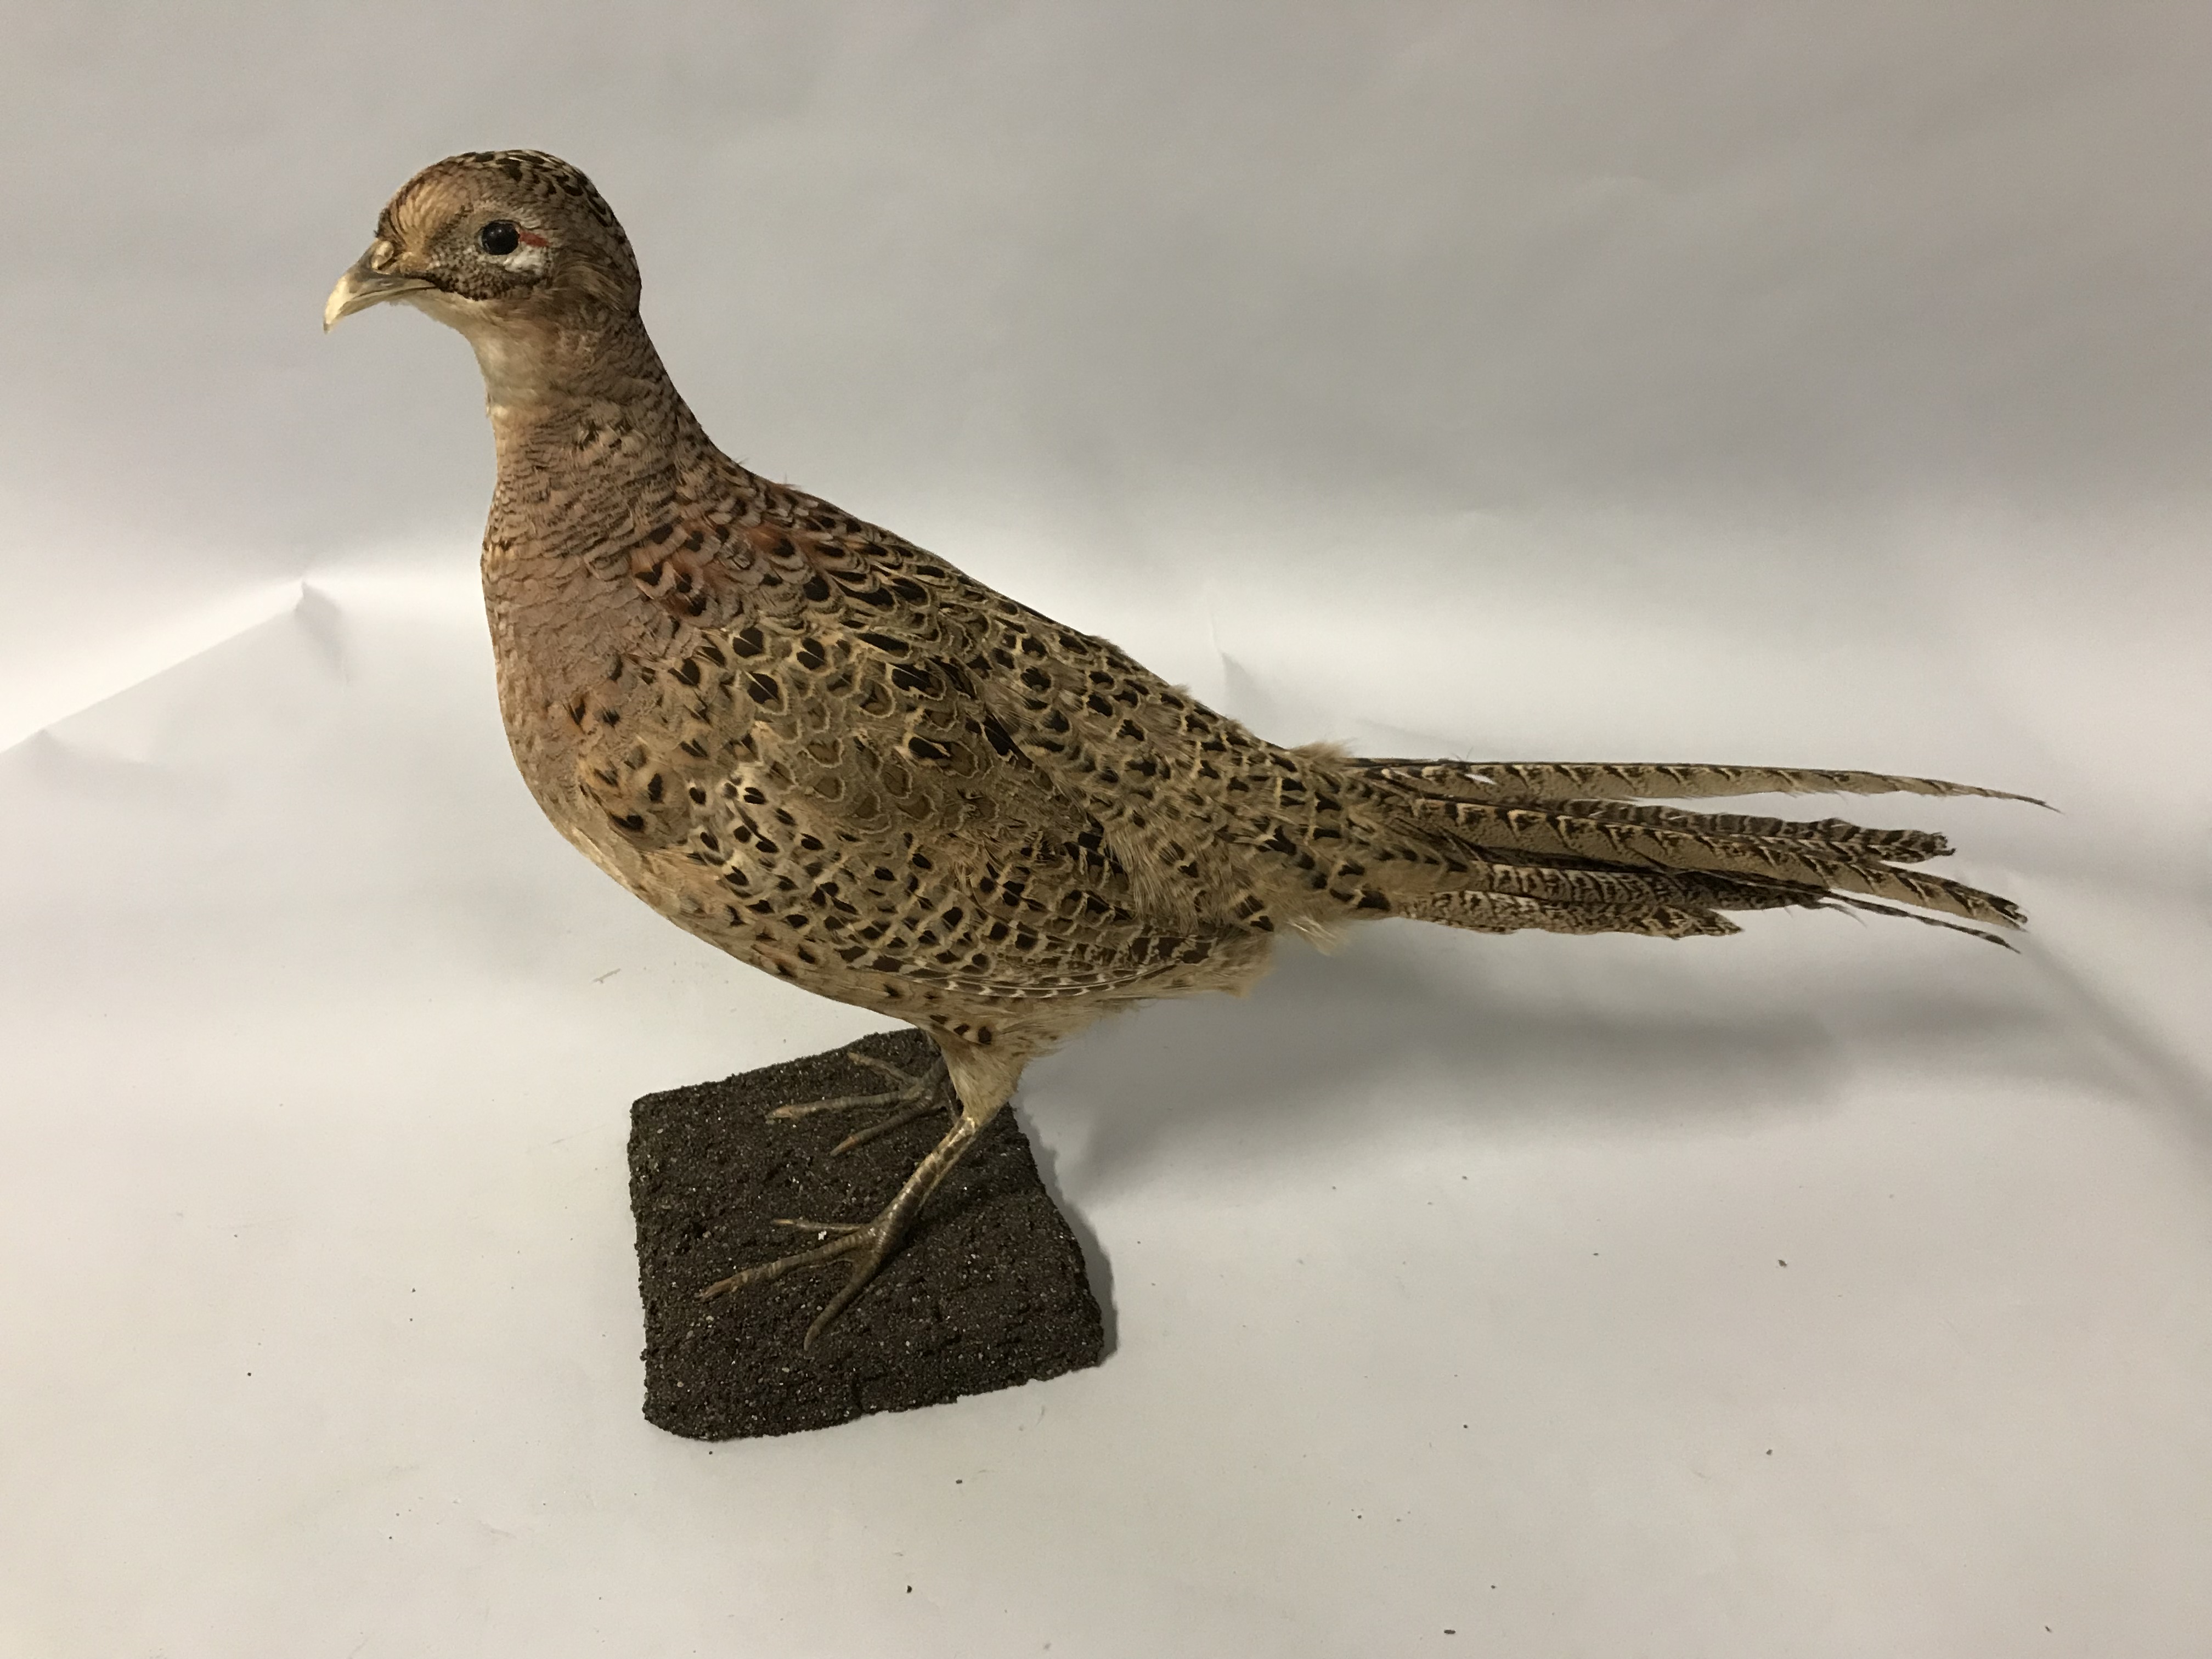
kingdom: Animalia
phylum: Chordata
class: Aves
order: Galliformes
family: Phasianidae
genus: Phasianus
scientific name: Phasianus colchicus
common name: Common pheasant
